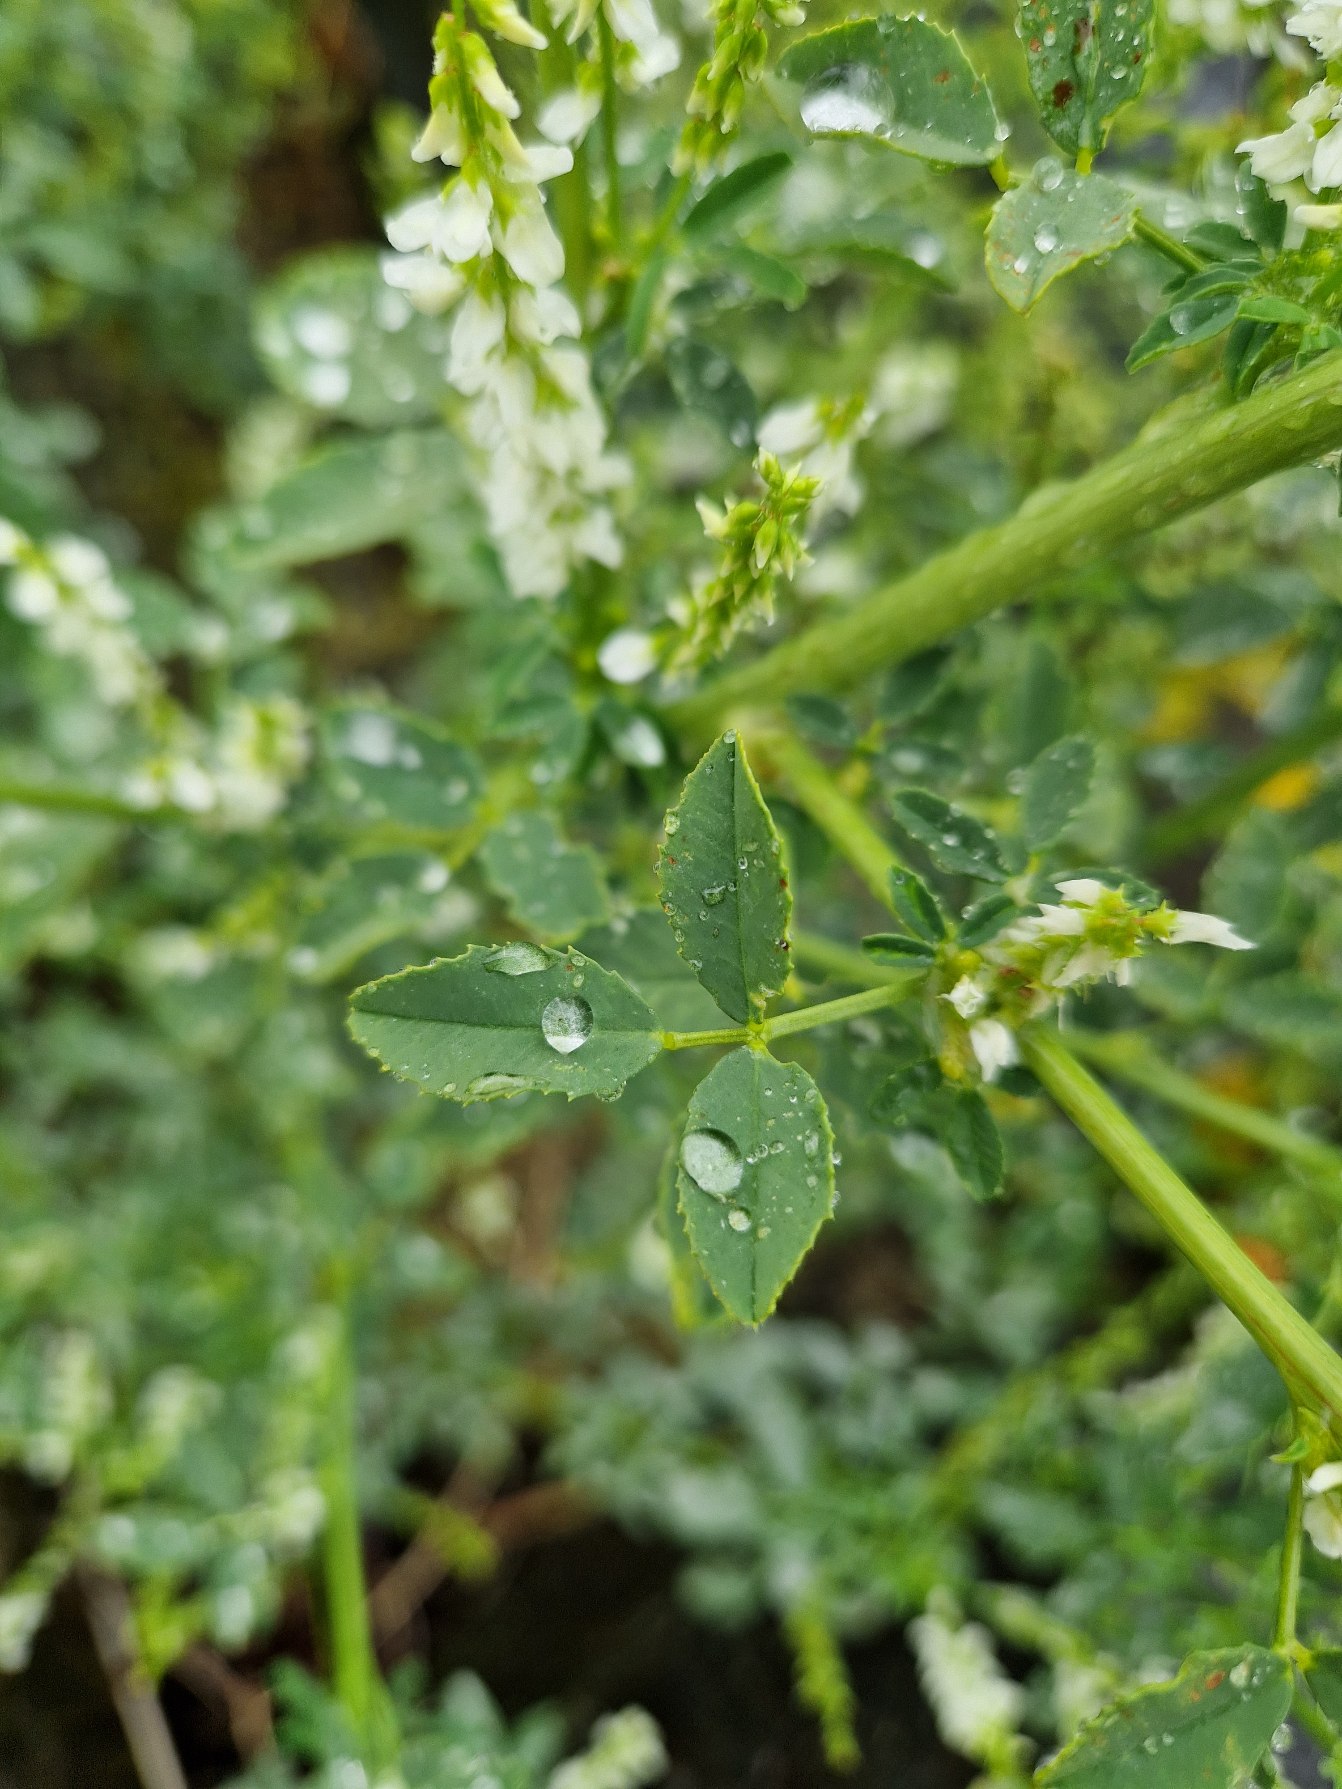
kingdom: Plantae
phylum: Tracheophyta
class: Magnoliopsida
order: Fabales
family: Fabaceae
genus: Melilotus
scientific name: Melilotus albus
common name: Hvid stenkløver
